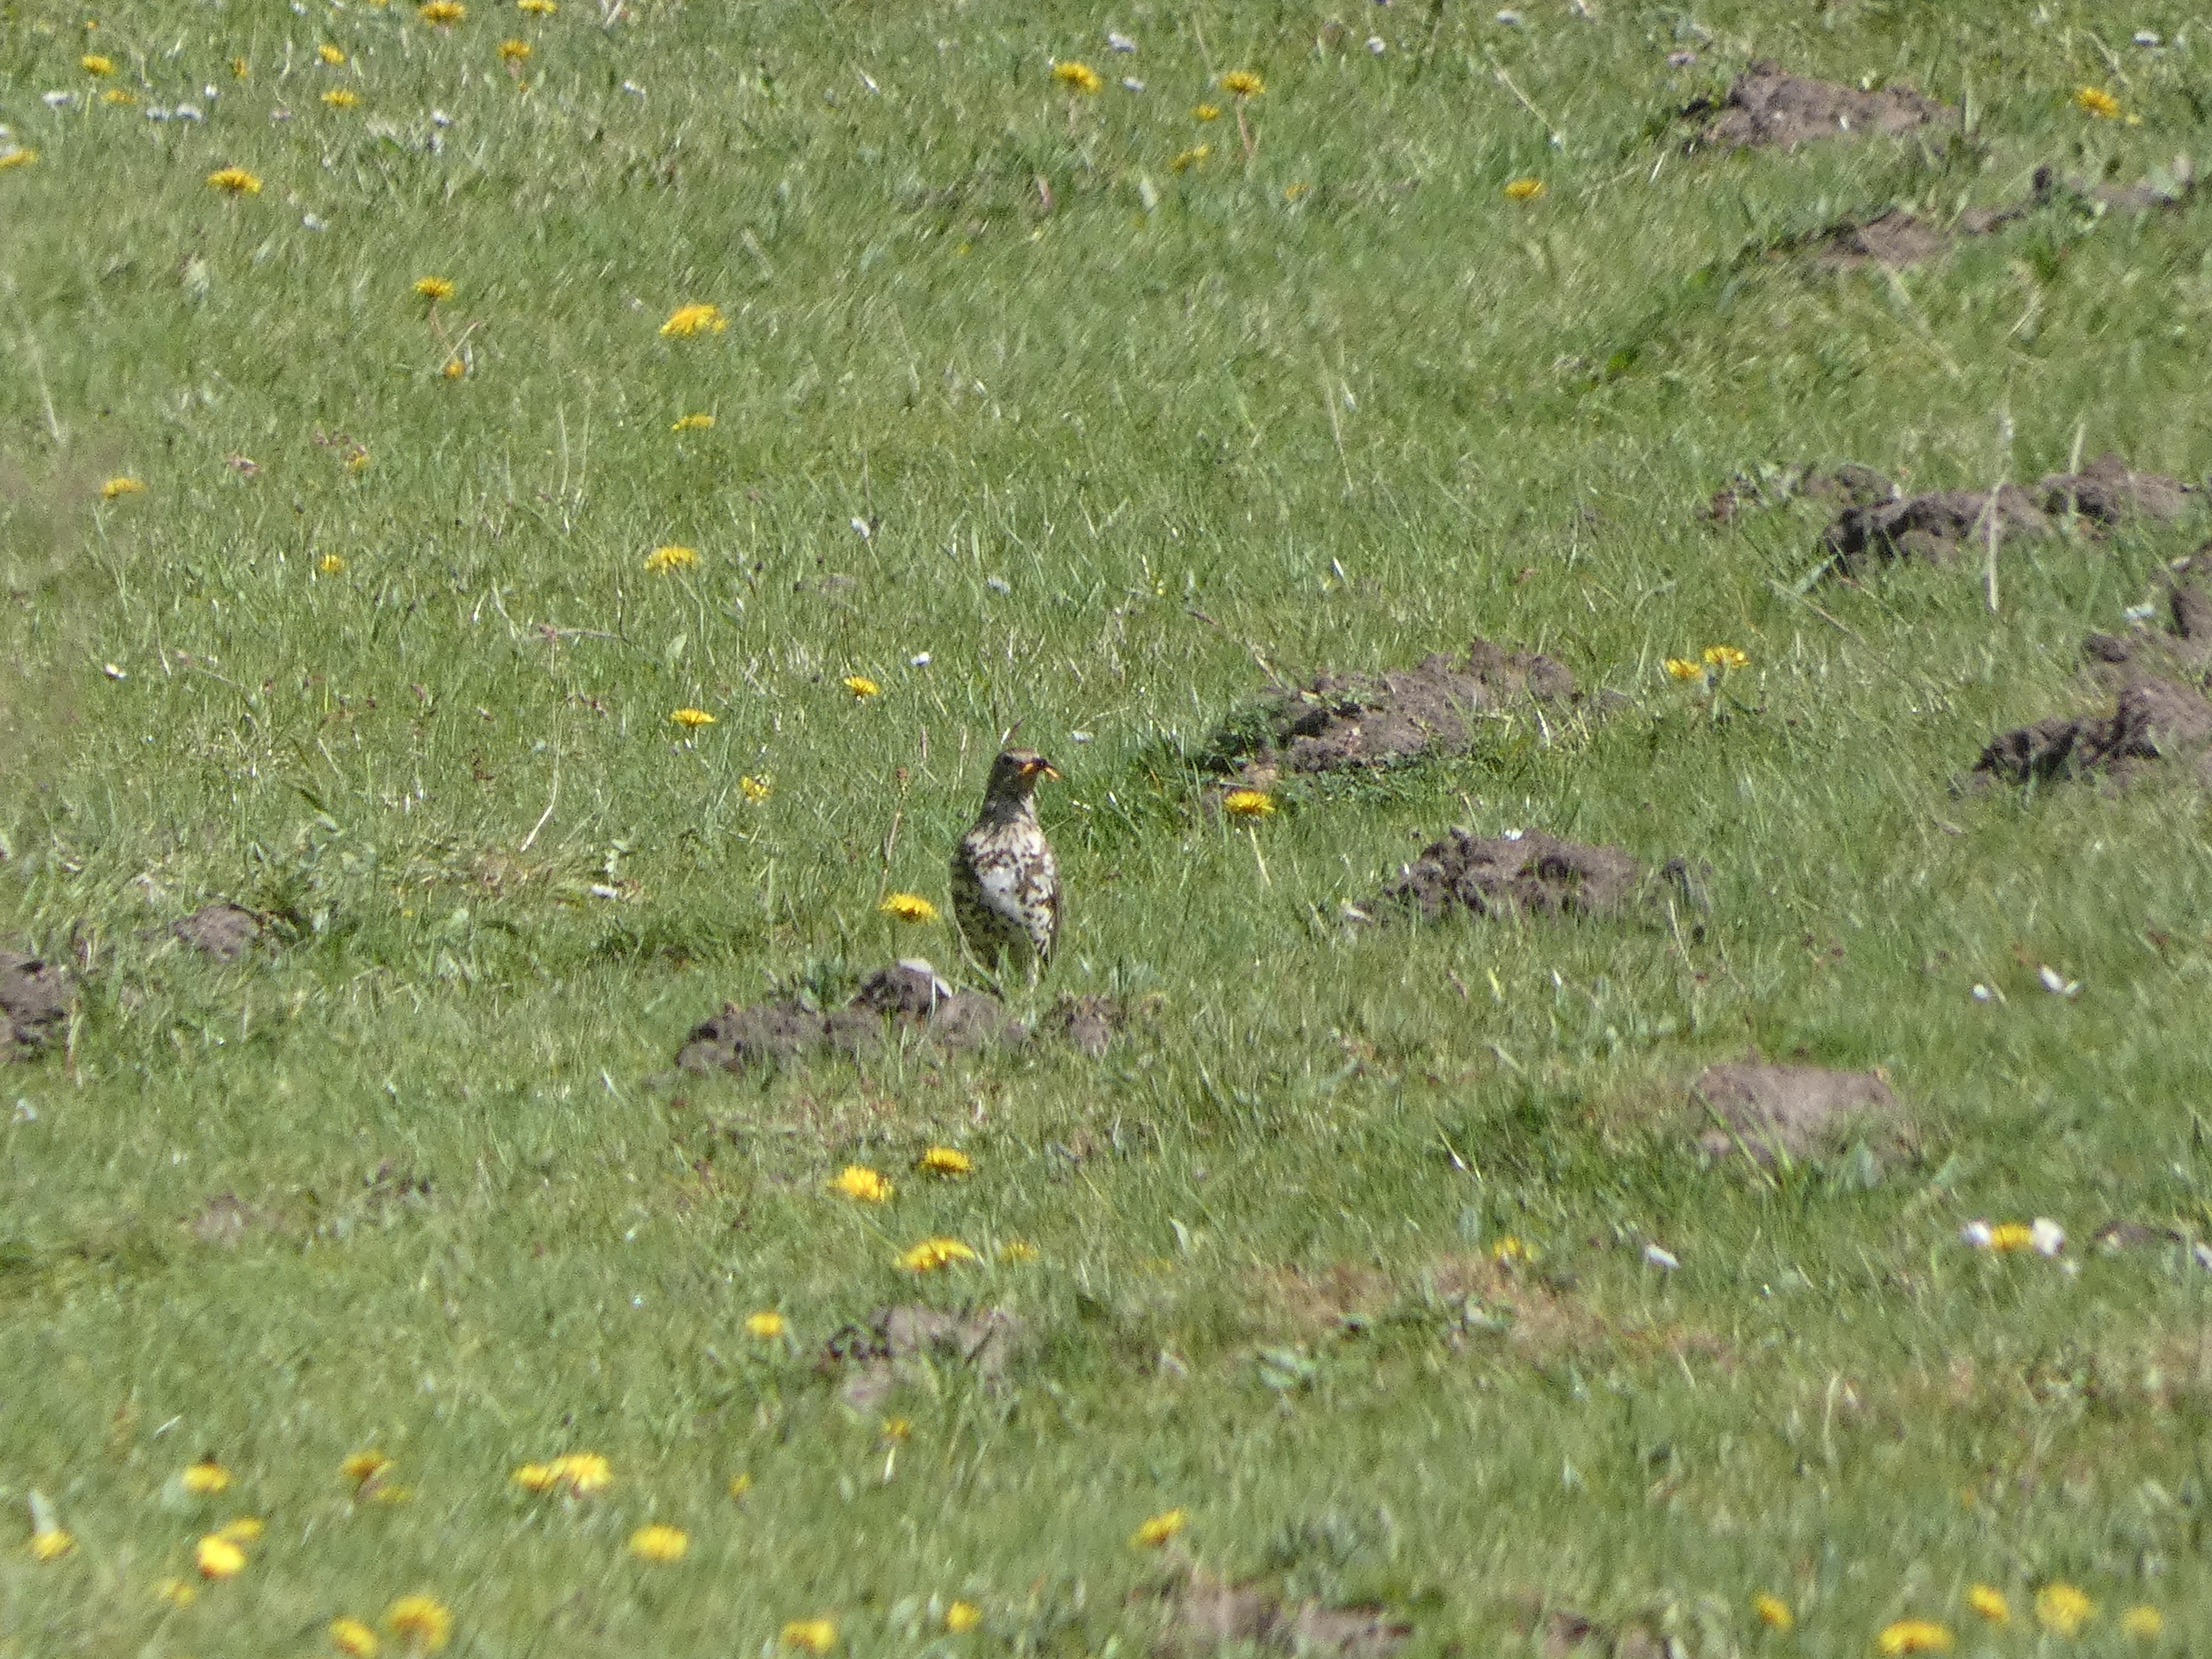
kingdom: Animalia
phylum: Chordata
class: Aves
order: Passeriformes
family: Turdidae
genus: Turdus
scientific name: Turdus viscivorus
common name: Misteldrossel
